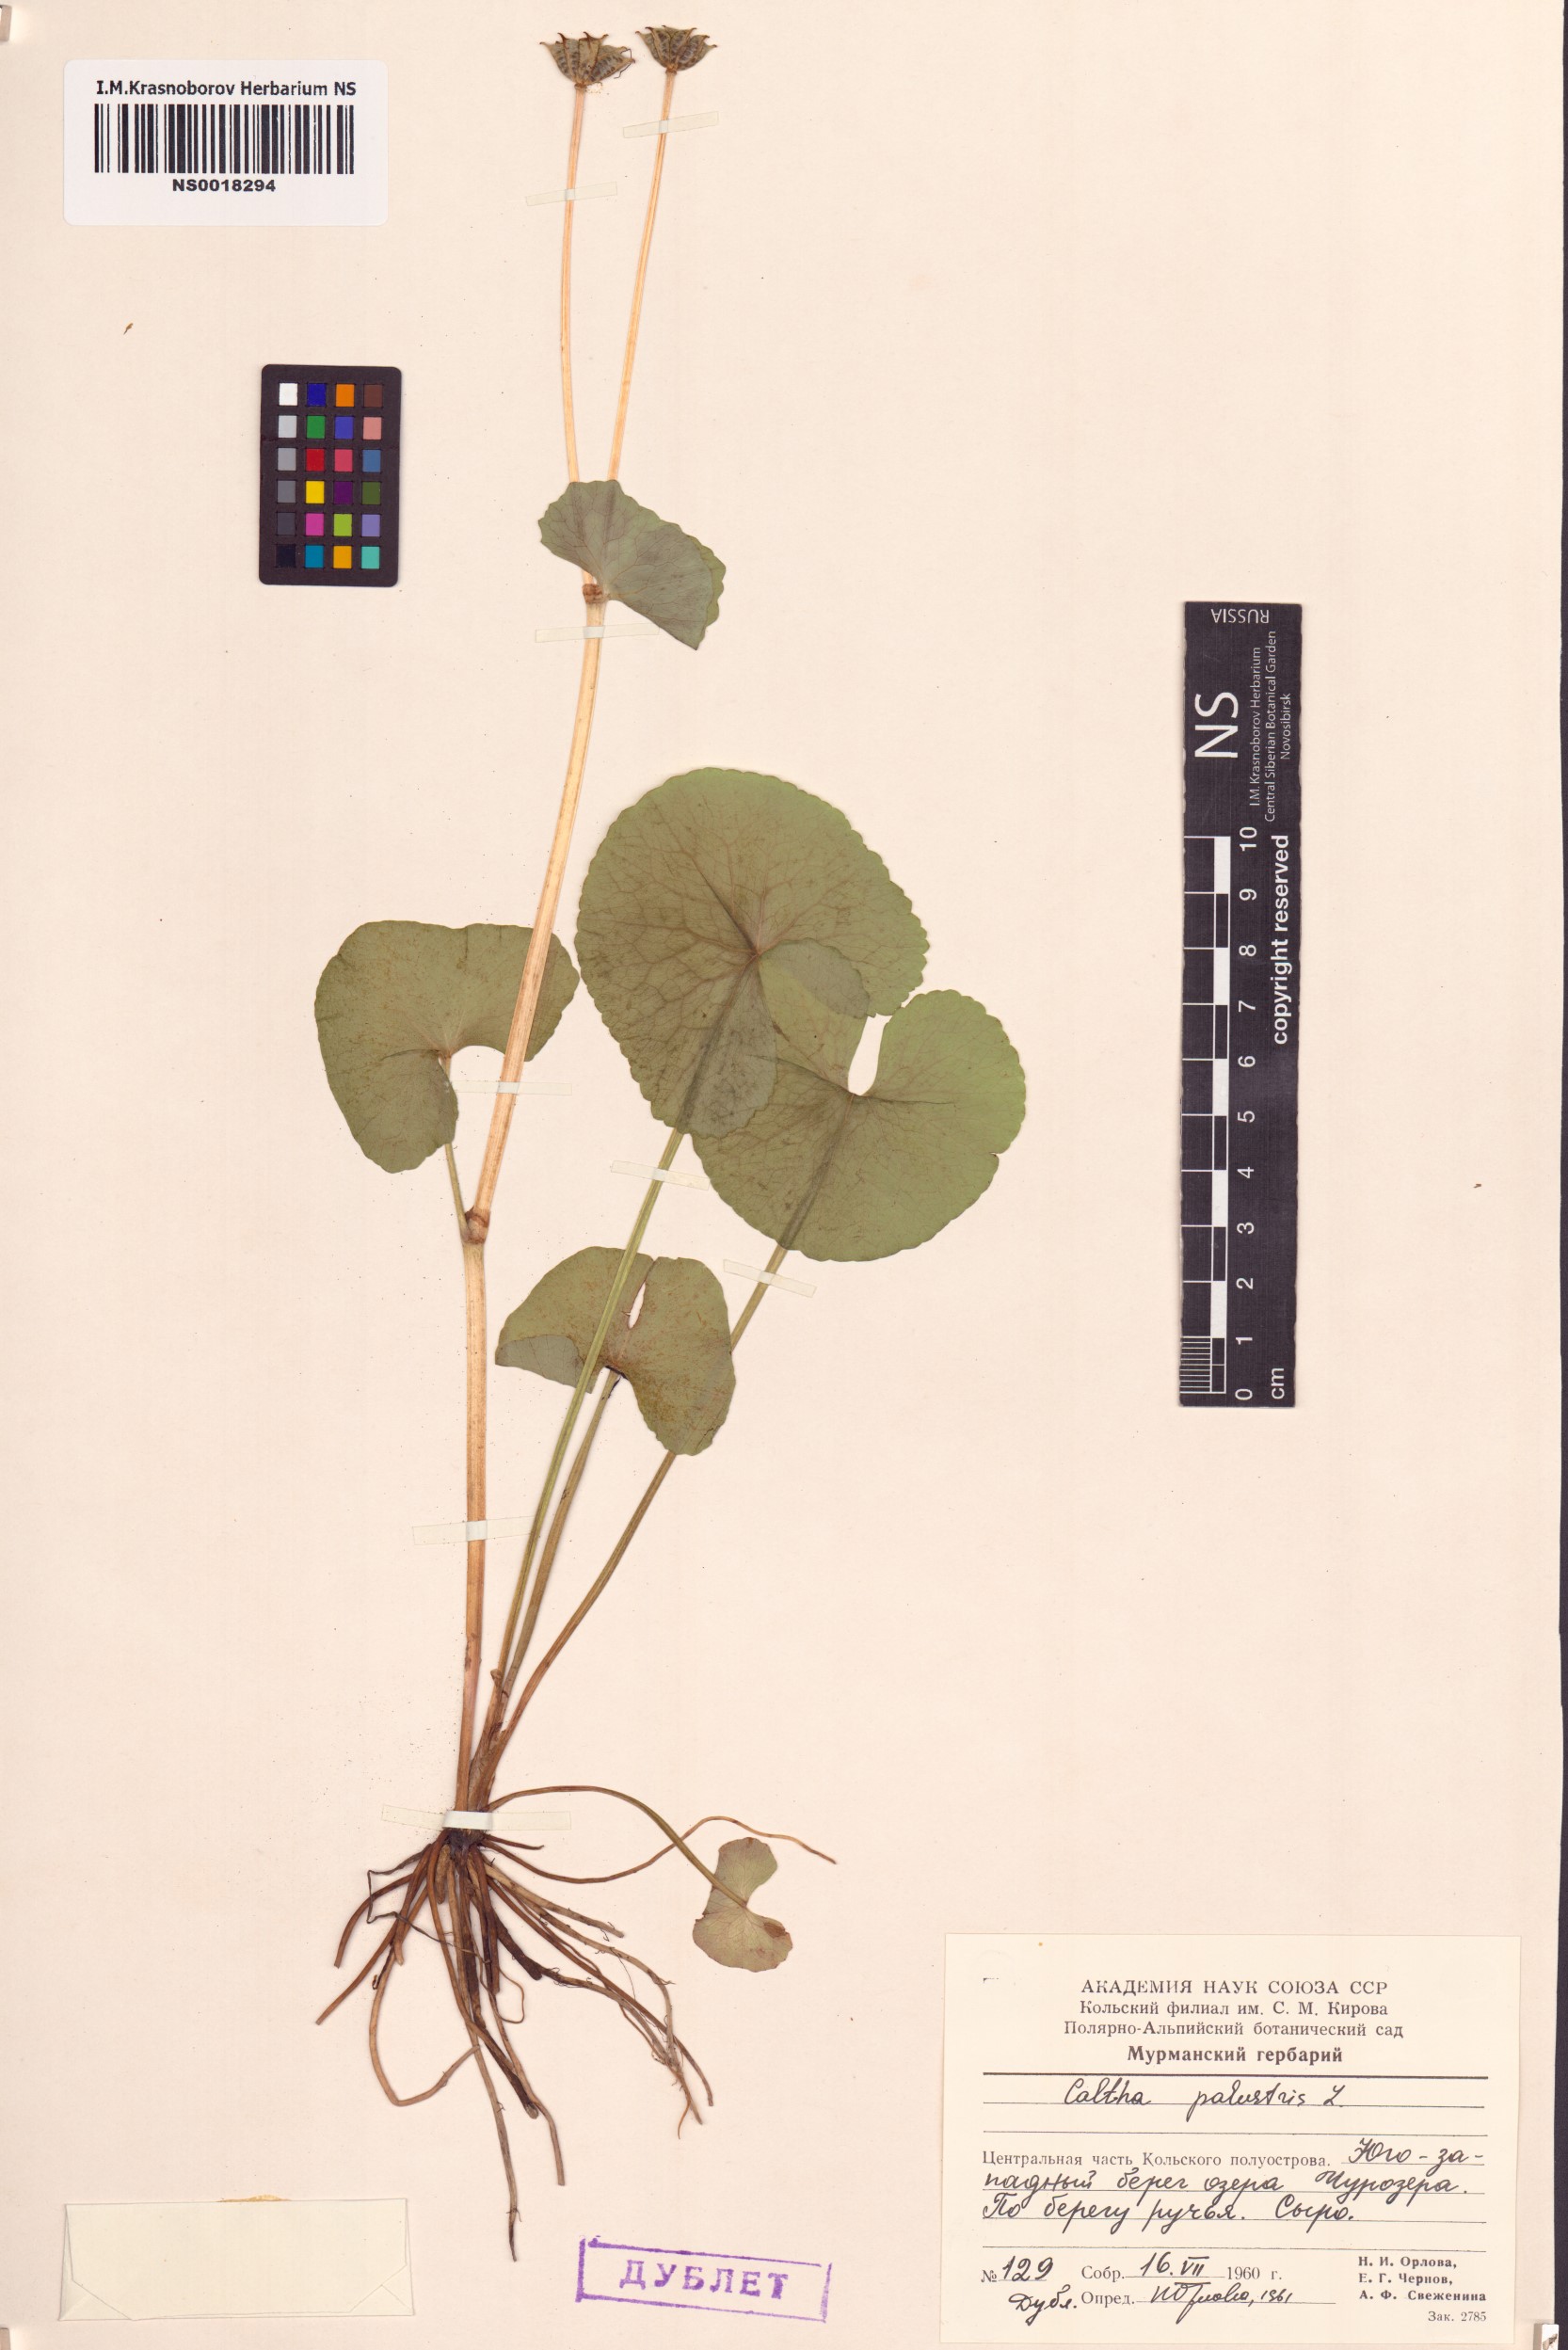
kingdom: Plantae
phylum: Tracheophyta
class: Magnoliopsida
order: Ranunculales
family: Ranunculaceae
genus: Caltha
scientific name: Caltha palustris
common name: Marsh marigold
